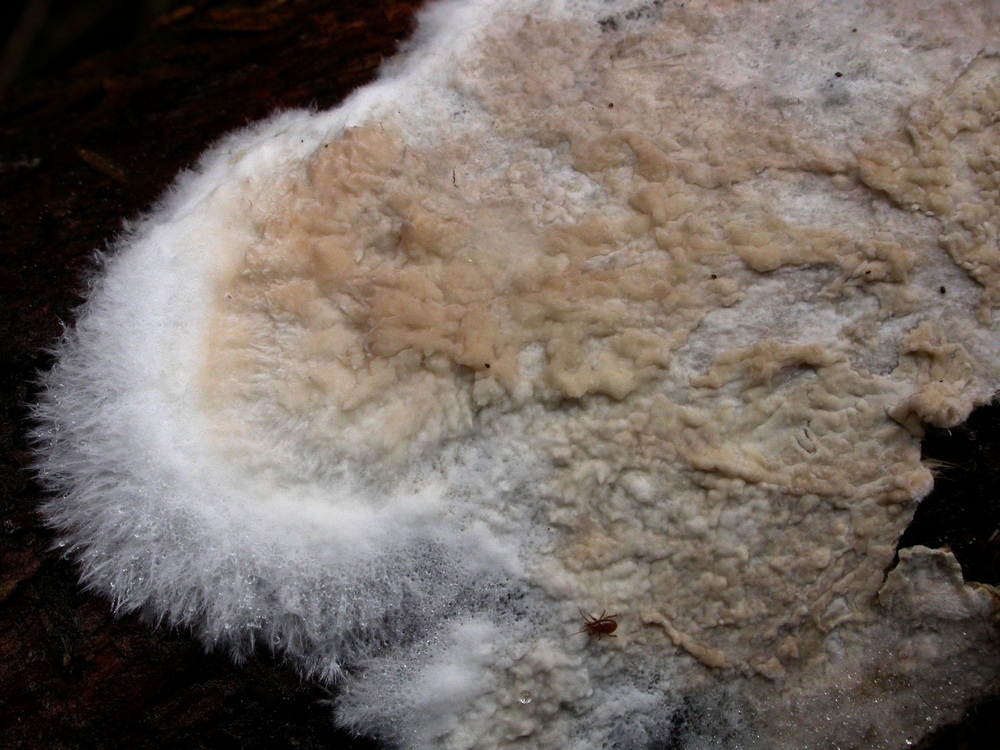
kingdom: Fungi
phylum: Basidiomycota
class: Agaricomycetes
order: Agaricales
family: Pterulaceae
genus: Merulicium
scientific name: Merulicium fusisporum
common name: nålekvas-naftalinskind
